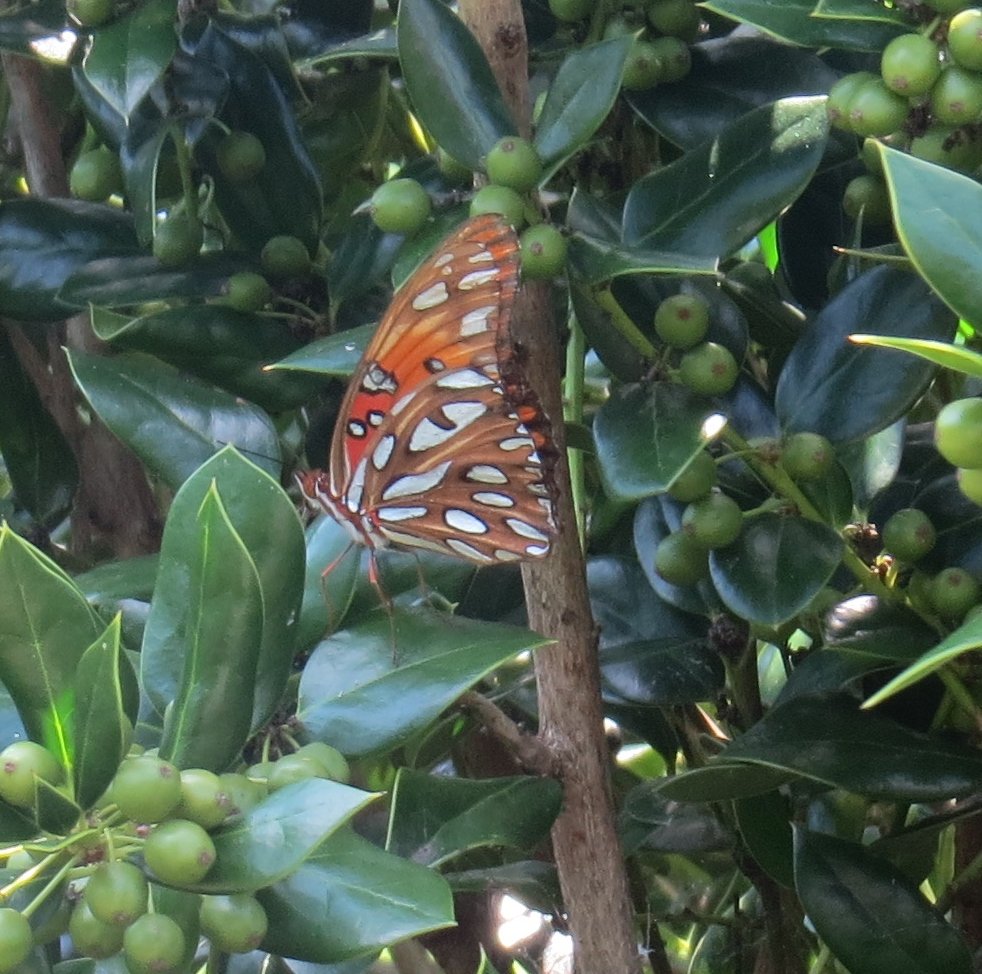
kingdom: Animalia
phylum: Arthropoda
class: Insecta
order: Lepidoptera
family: Nymphalidae
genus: Dione
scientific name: Dione vanillae
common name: Gulf Fritillary
